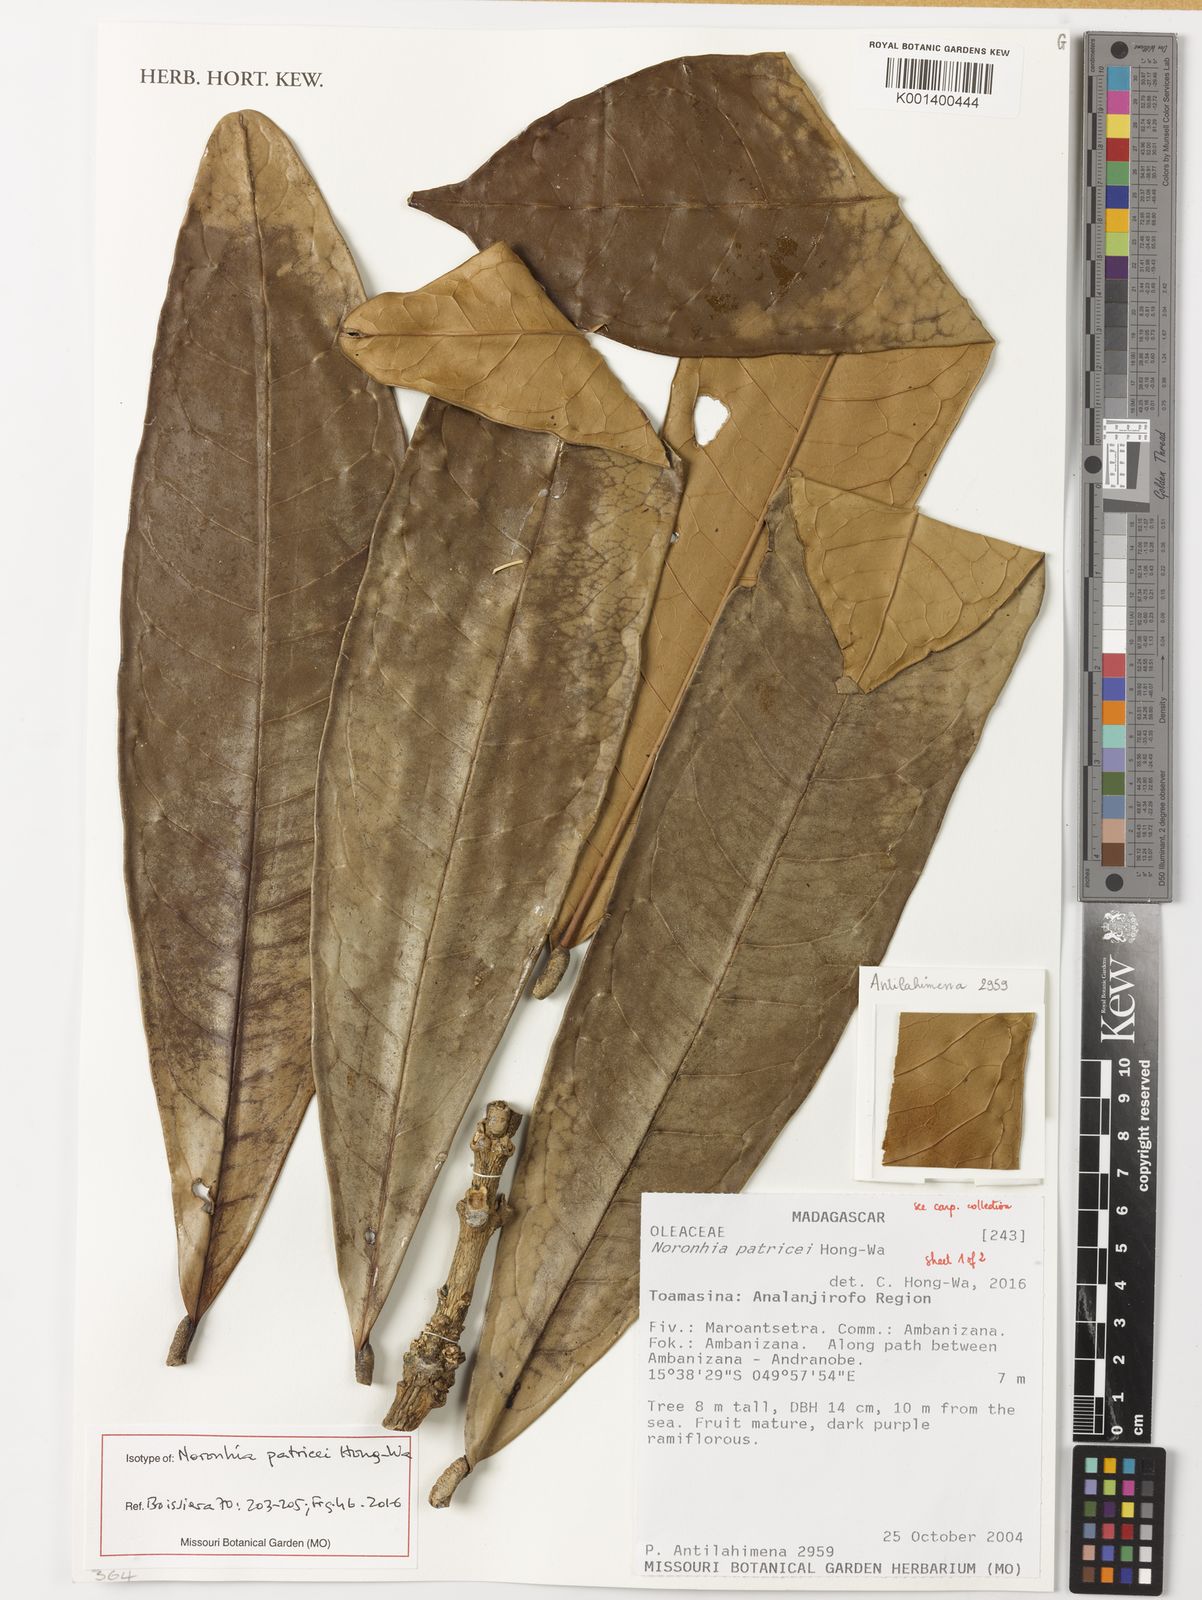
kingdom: Plantae
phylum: Tracheophyta
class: Magnoliopsida
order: Lamiales
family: Oleaceae
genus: Noronhia
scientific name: Noronhia patricei
